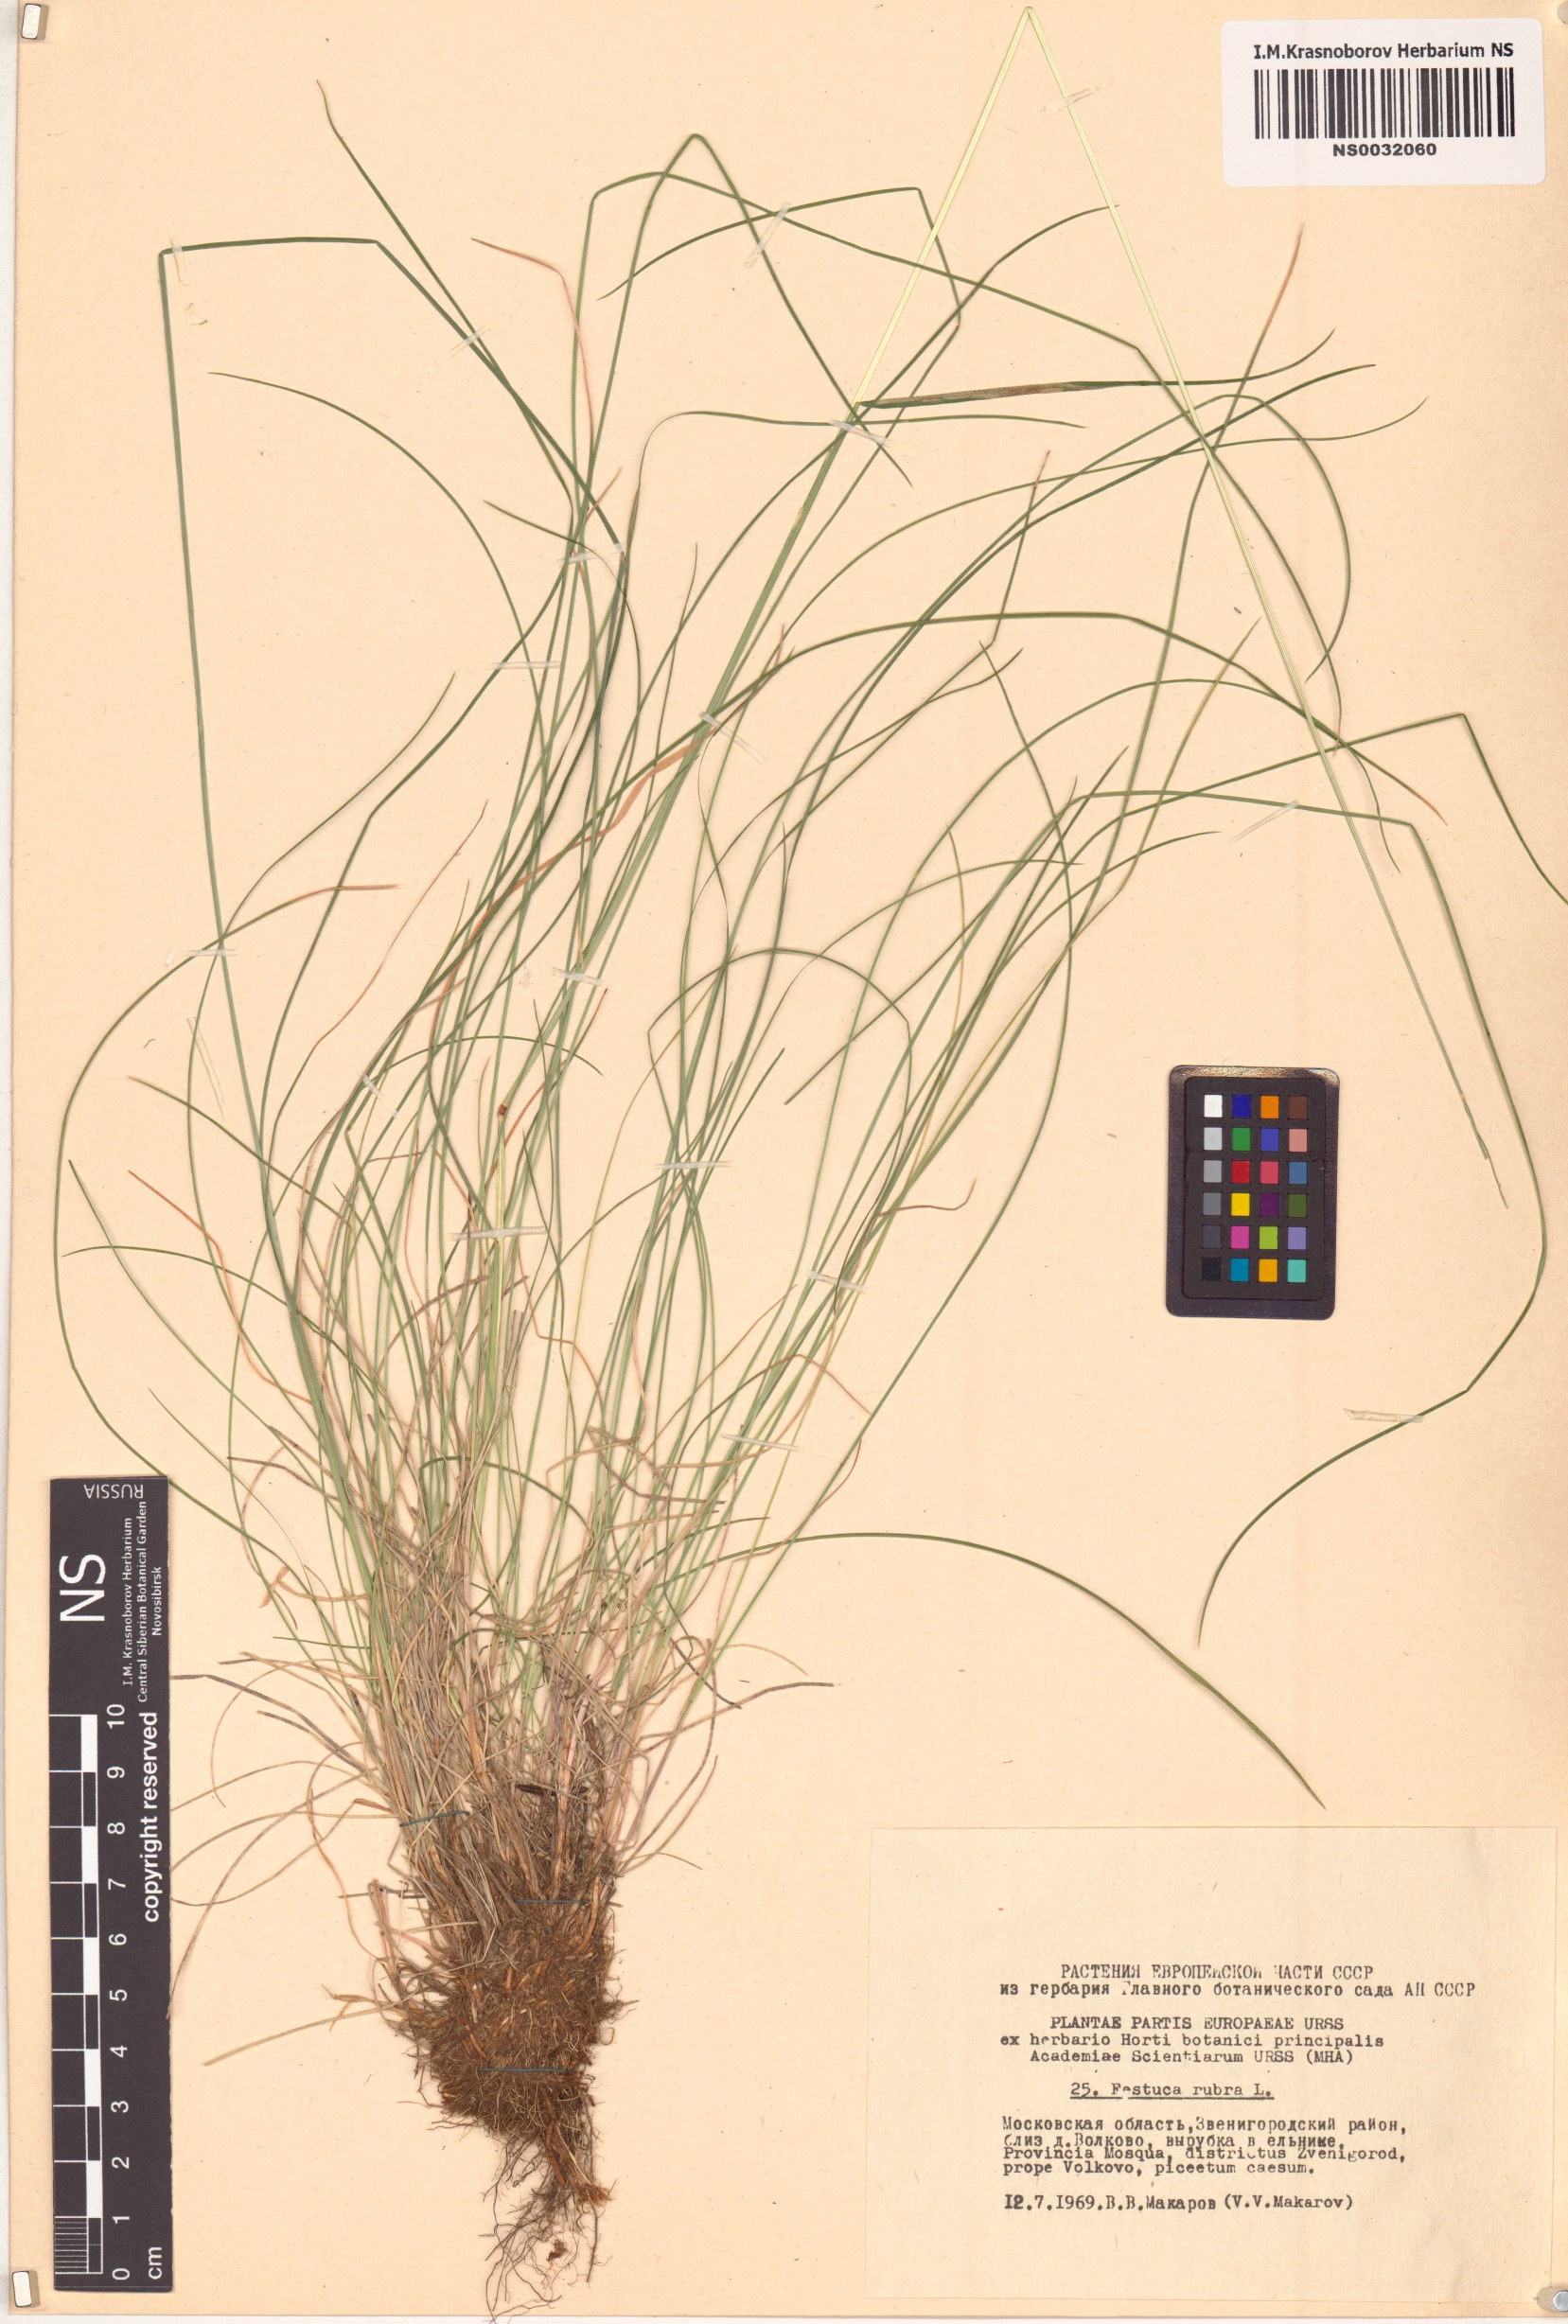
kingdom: Plantae
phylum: Tracheophyta
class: Liliopsida
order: Poales
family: Poaceae
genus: Festuca
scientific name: Festuca rubra
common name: Red fescue
